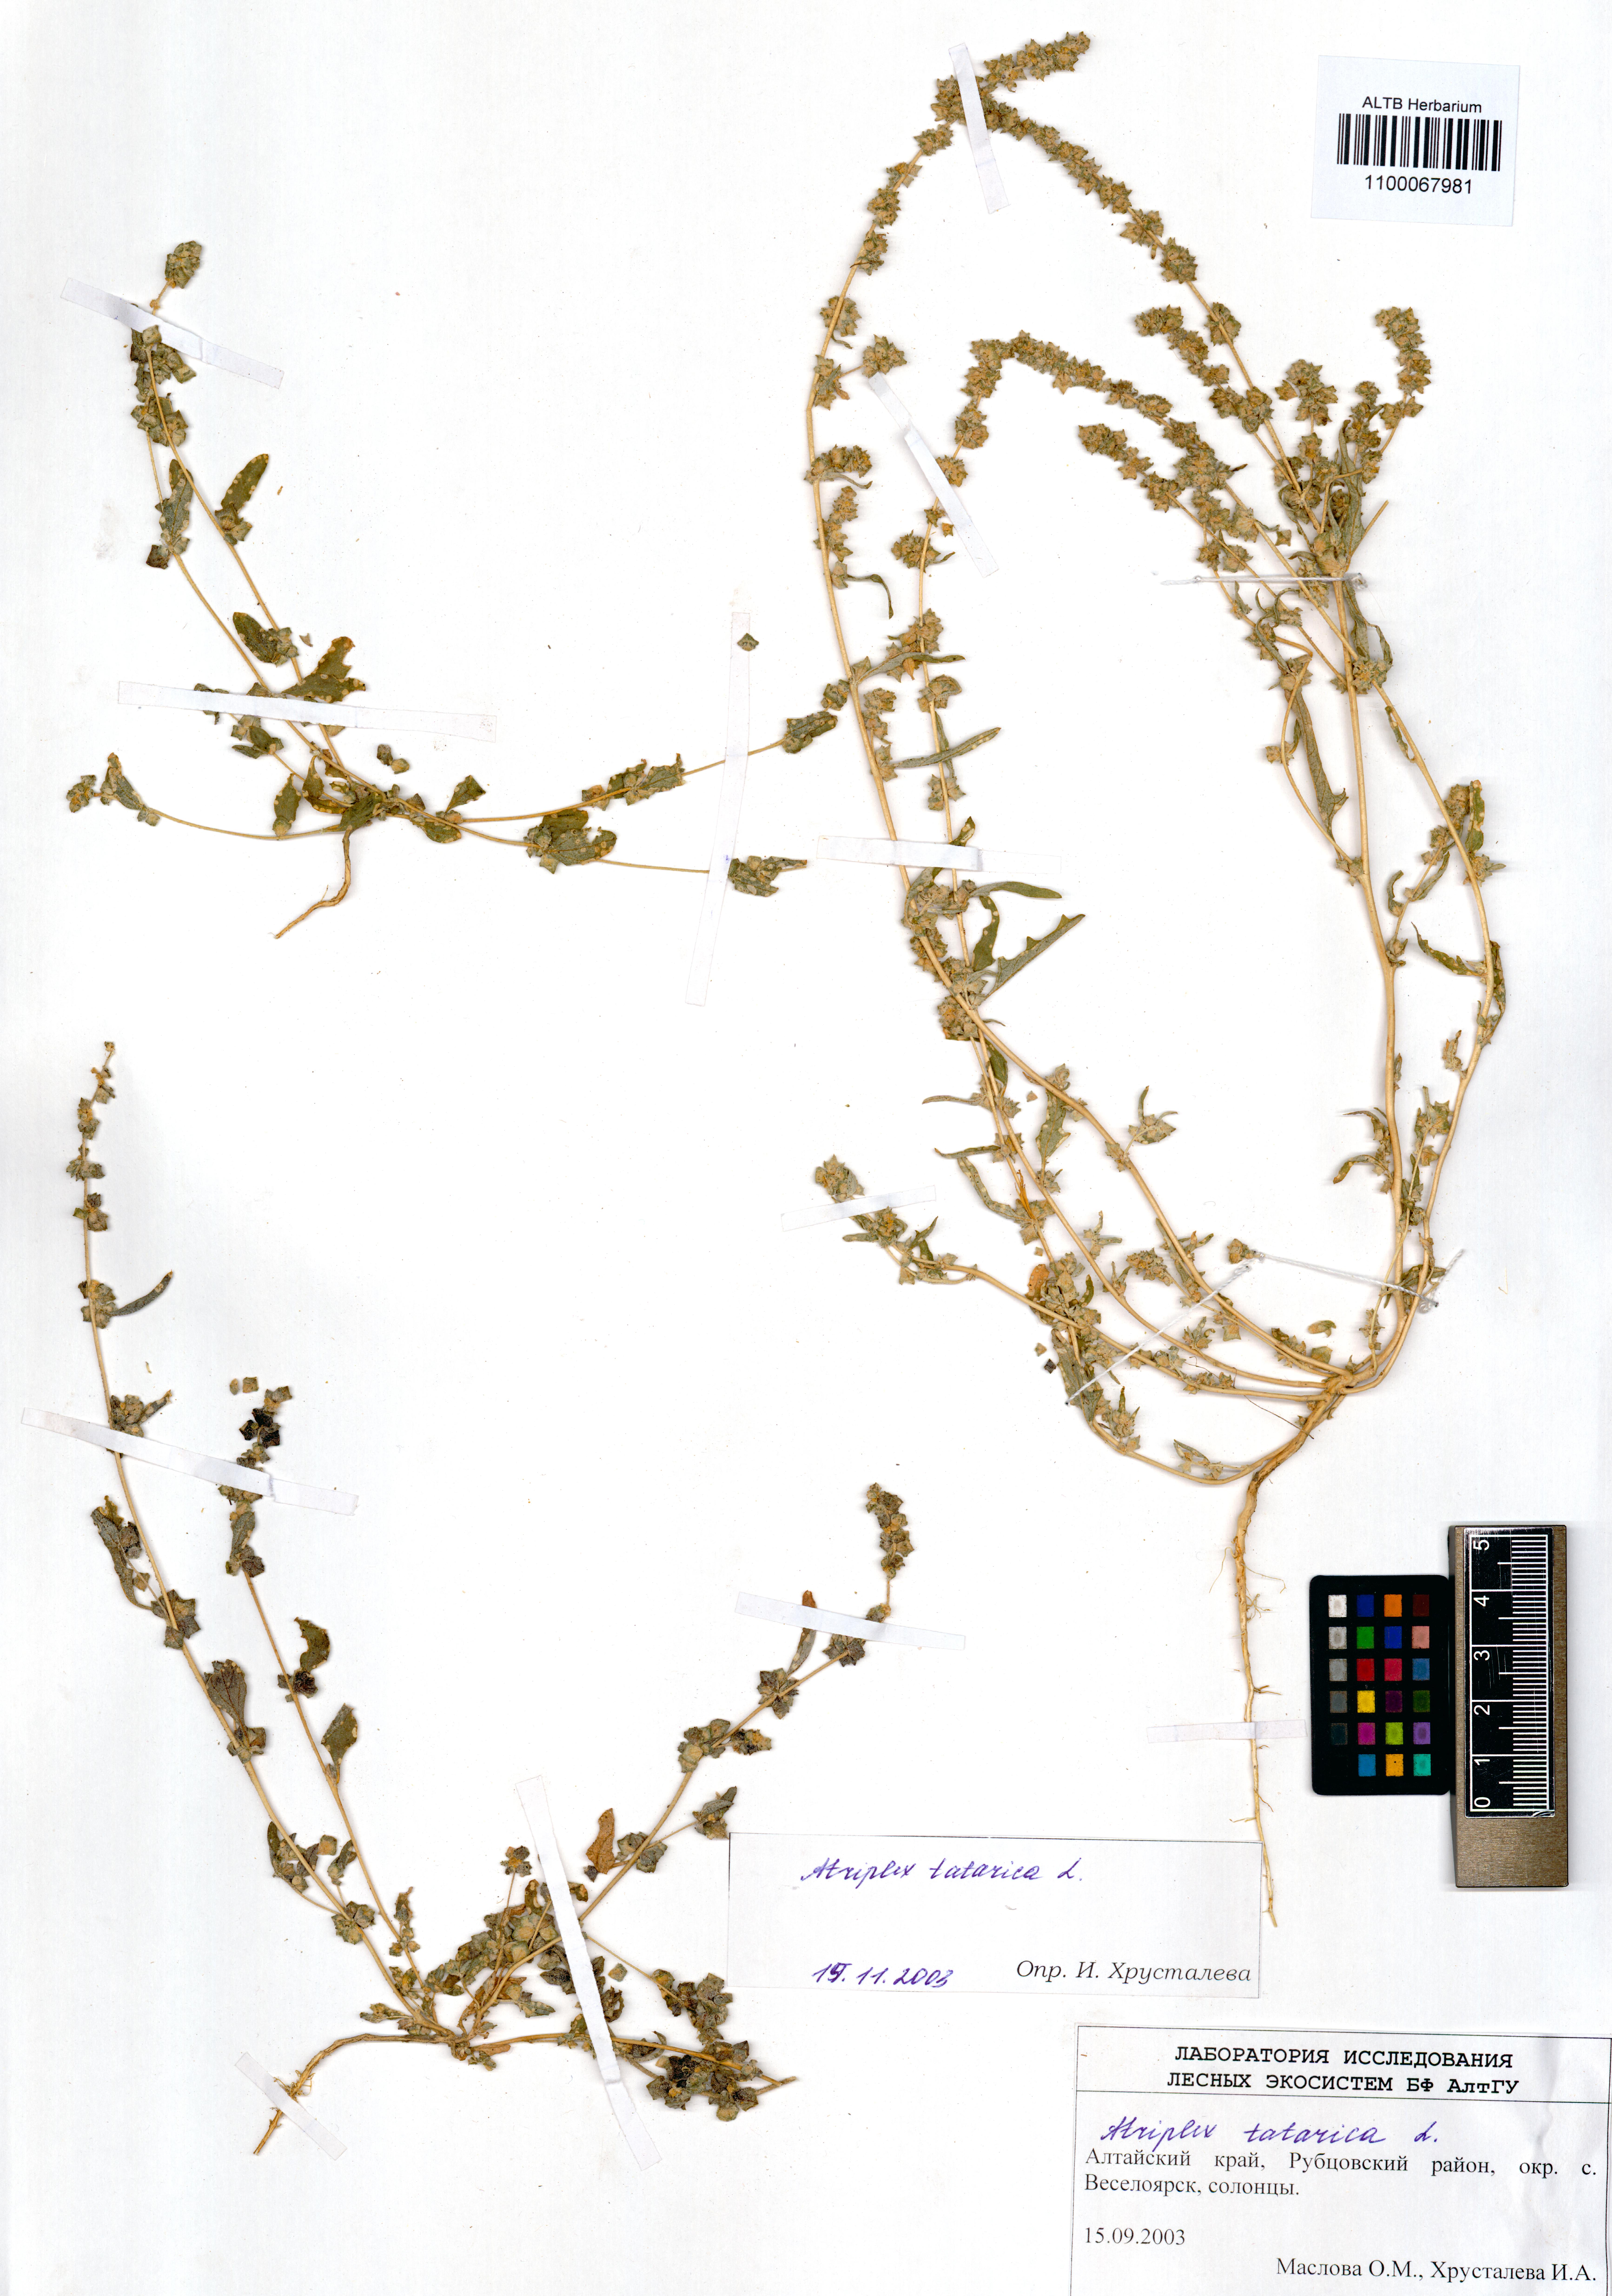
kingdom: Plantae
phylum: Tracheophyta
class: Magnoliopsida
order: Caryophyllales
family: Amaranthaceae
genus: Atriplex
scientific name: Atriplex tatarica
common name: Tatarian orache
